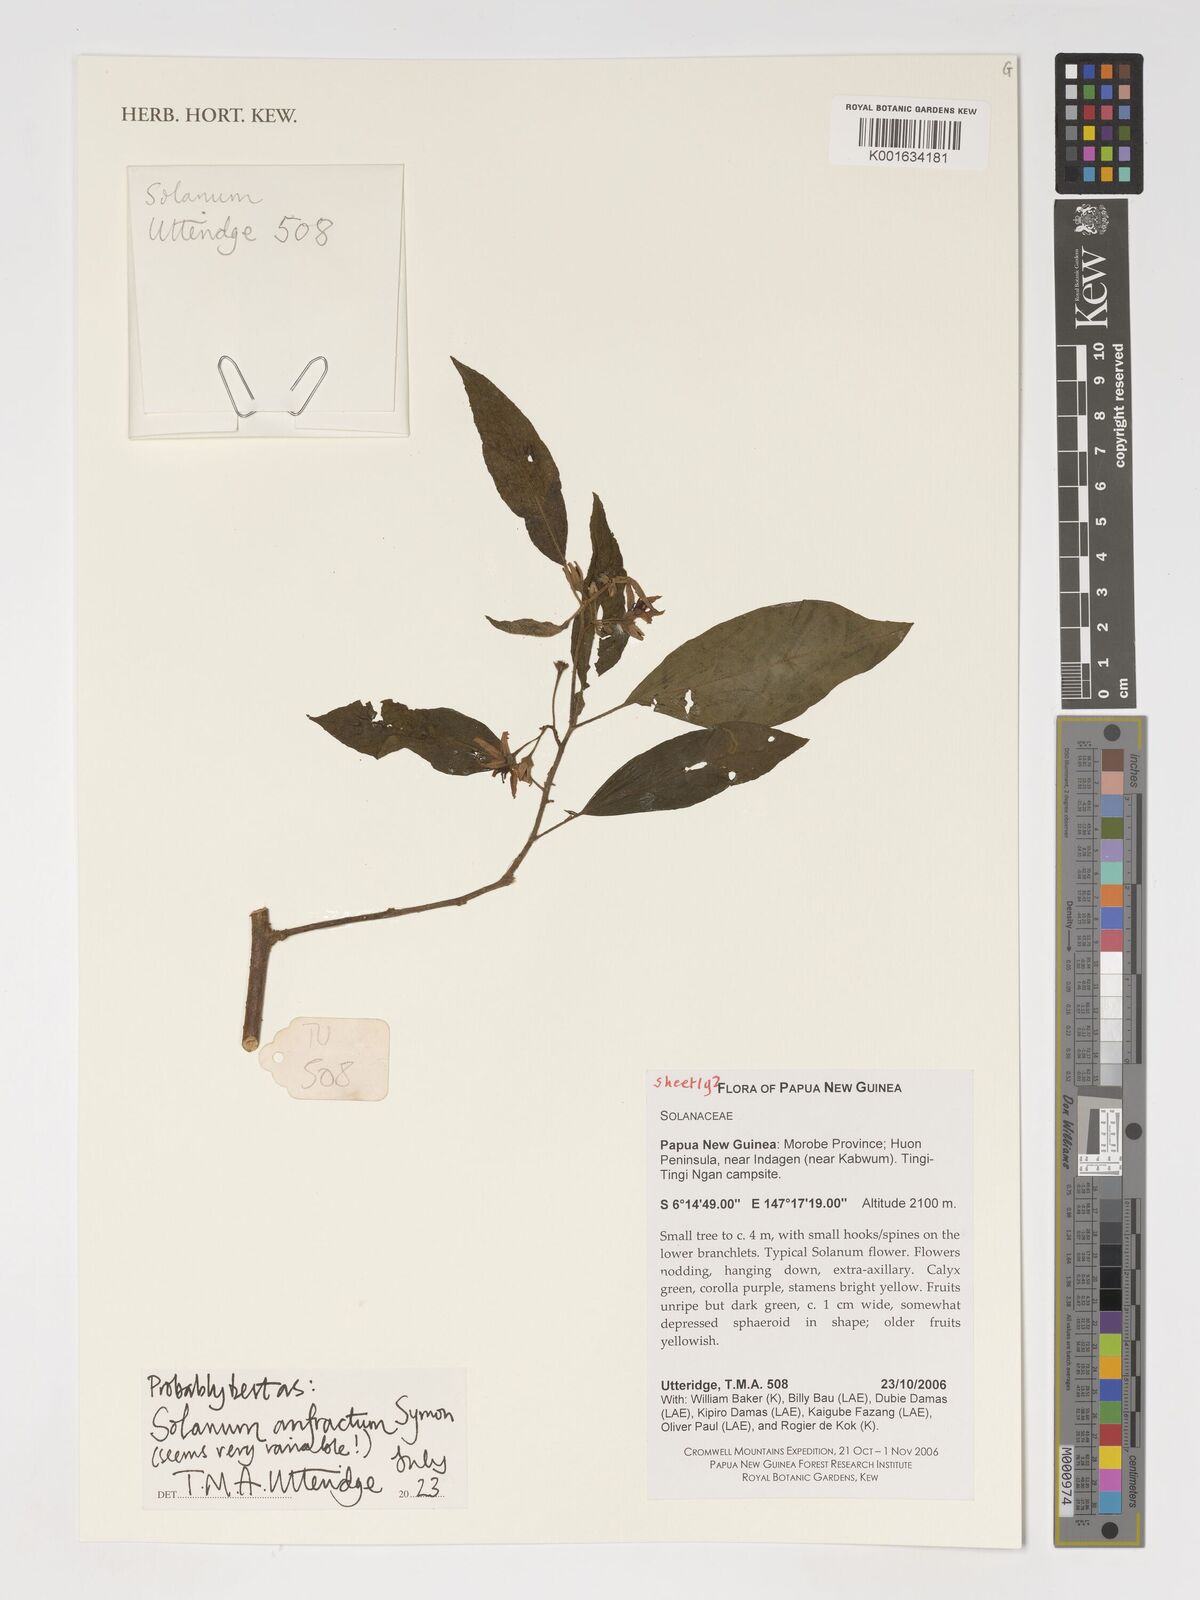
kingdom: Plantae
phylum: Tracheophyta
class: Magnoliopsida
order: Solanales
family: Solanaceae
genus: Solanum
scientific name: Solanum anfractum
